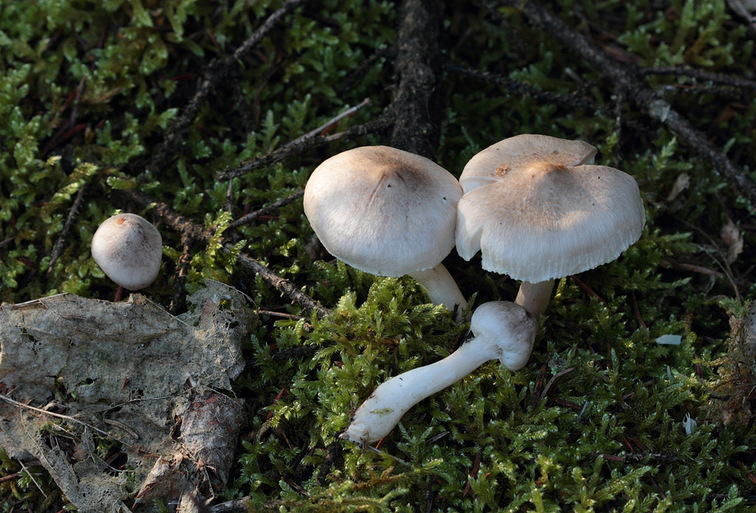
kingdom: Fungi
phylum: Basidiomycota
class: Agaricomycetes
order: Agaricales
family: Tricholomataceae
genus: Tricholoma
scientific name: Tricholoma argyraceum
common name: slør-ridderhat
